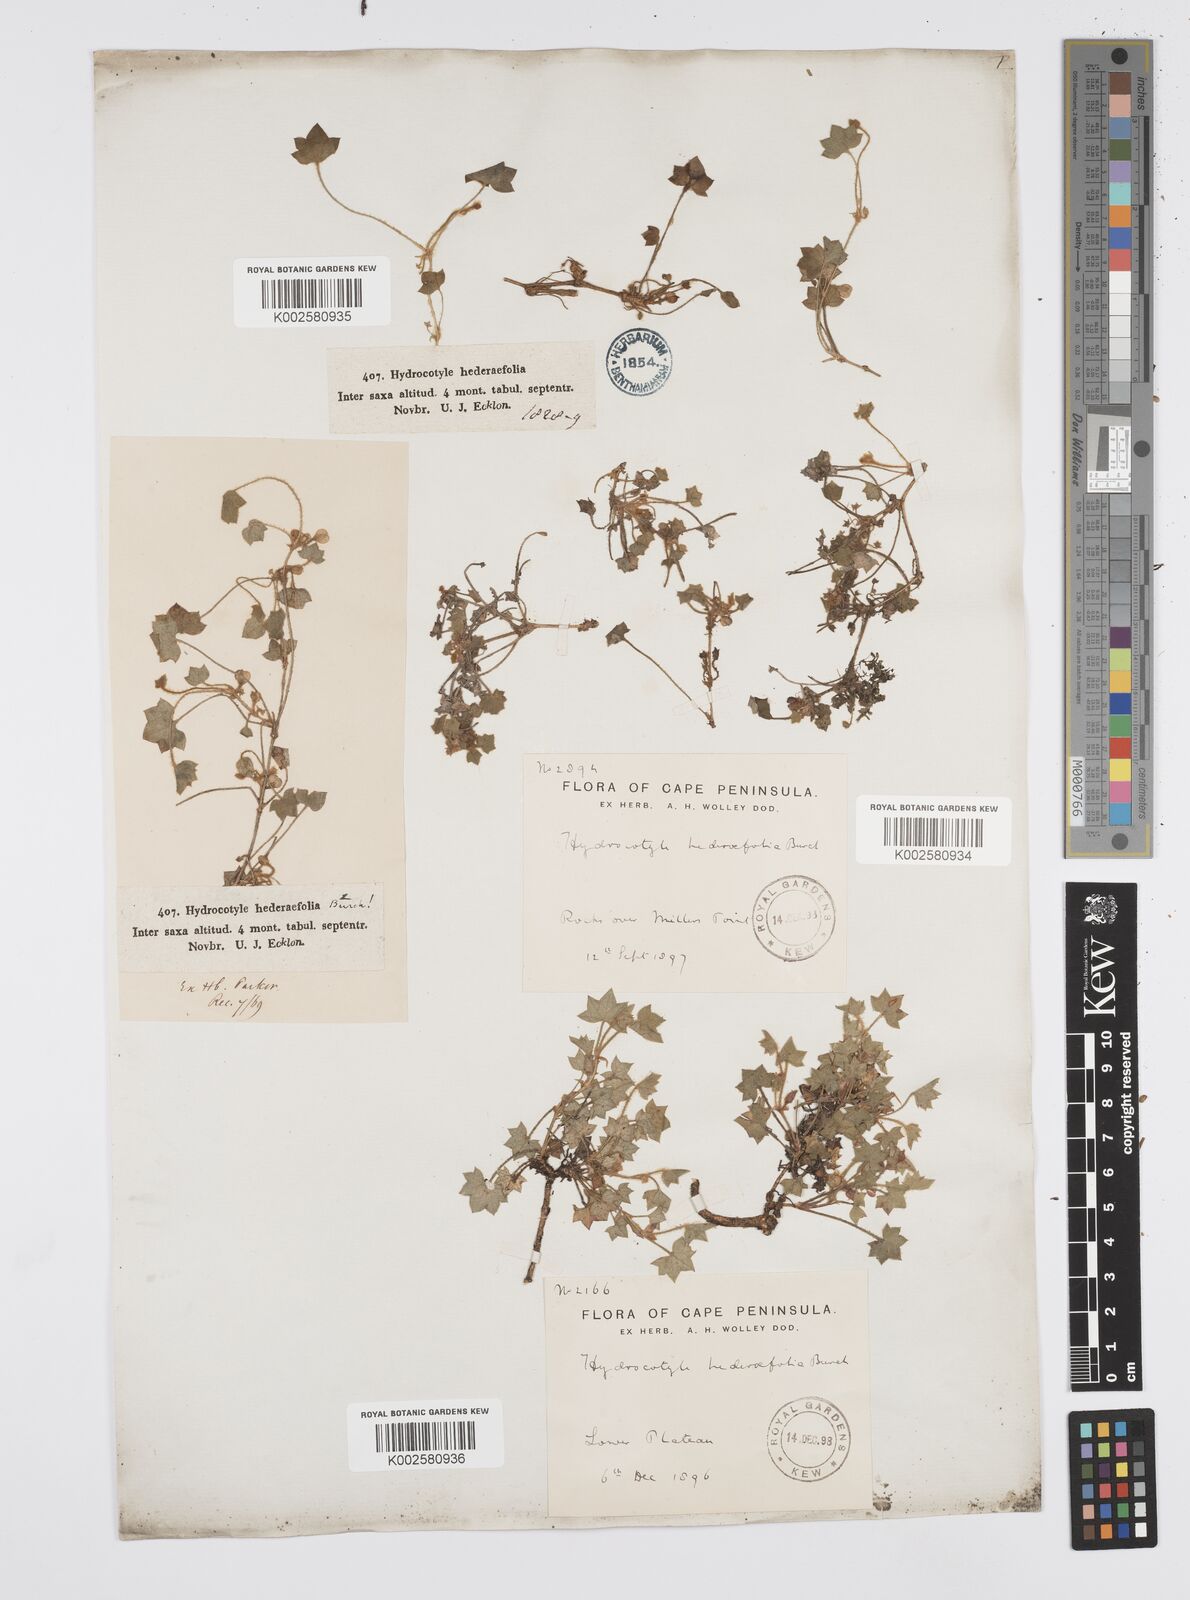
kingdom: Plantae
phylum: Tracheophyta
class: Magnoliopsida
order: Apiales
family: Apiaceae
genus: Centella
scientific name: Centella macroda
